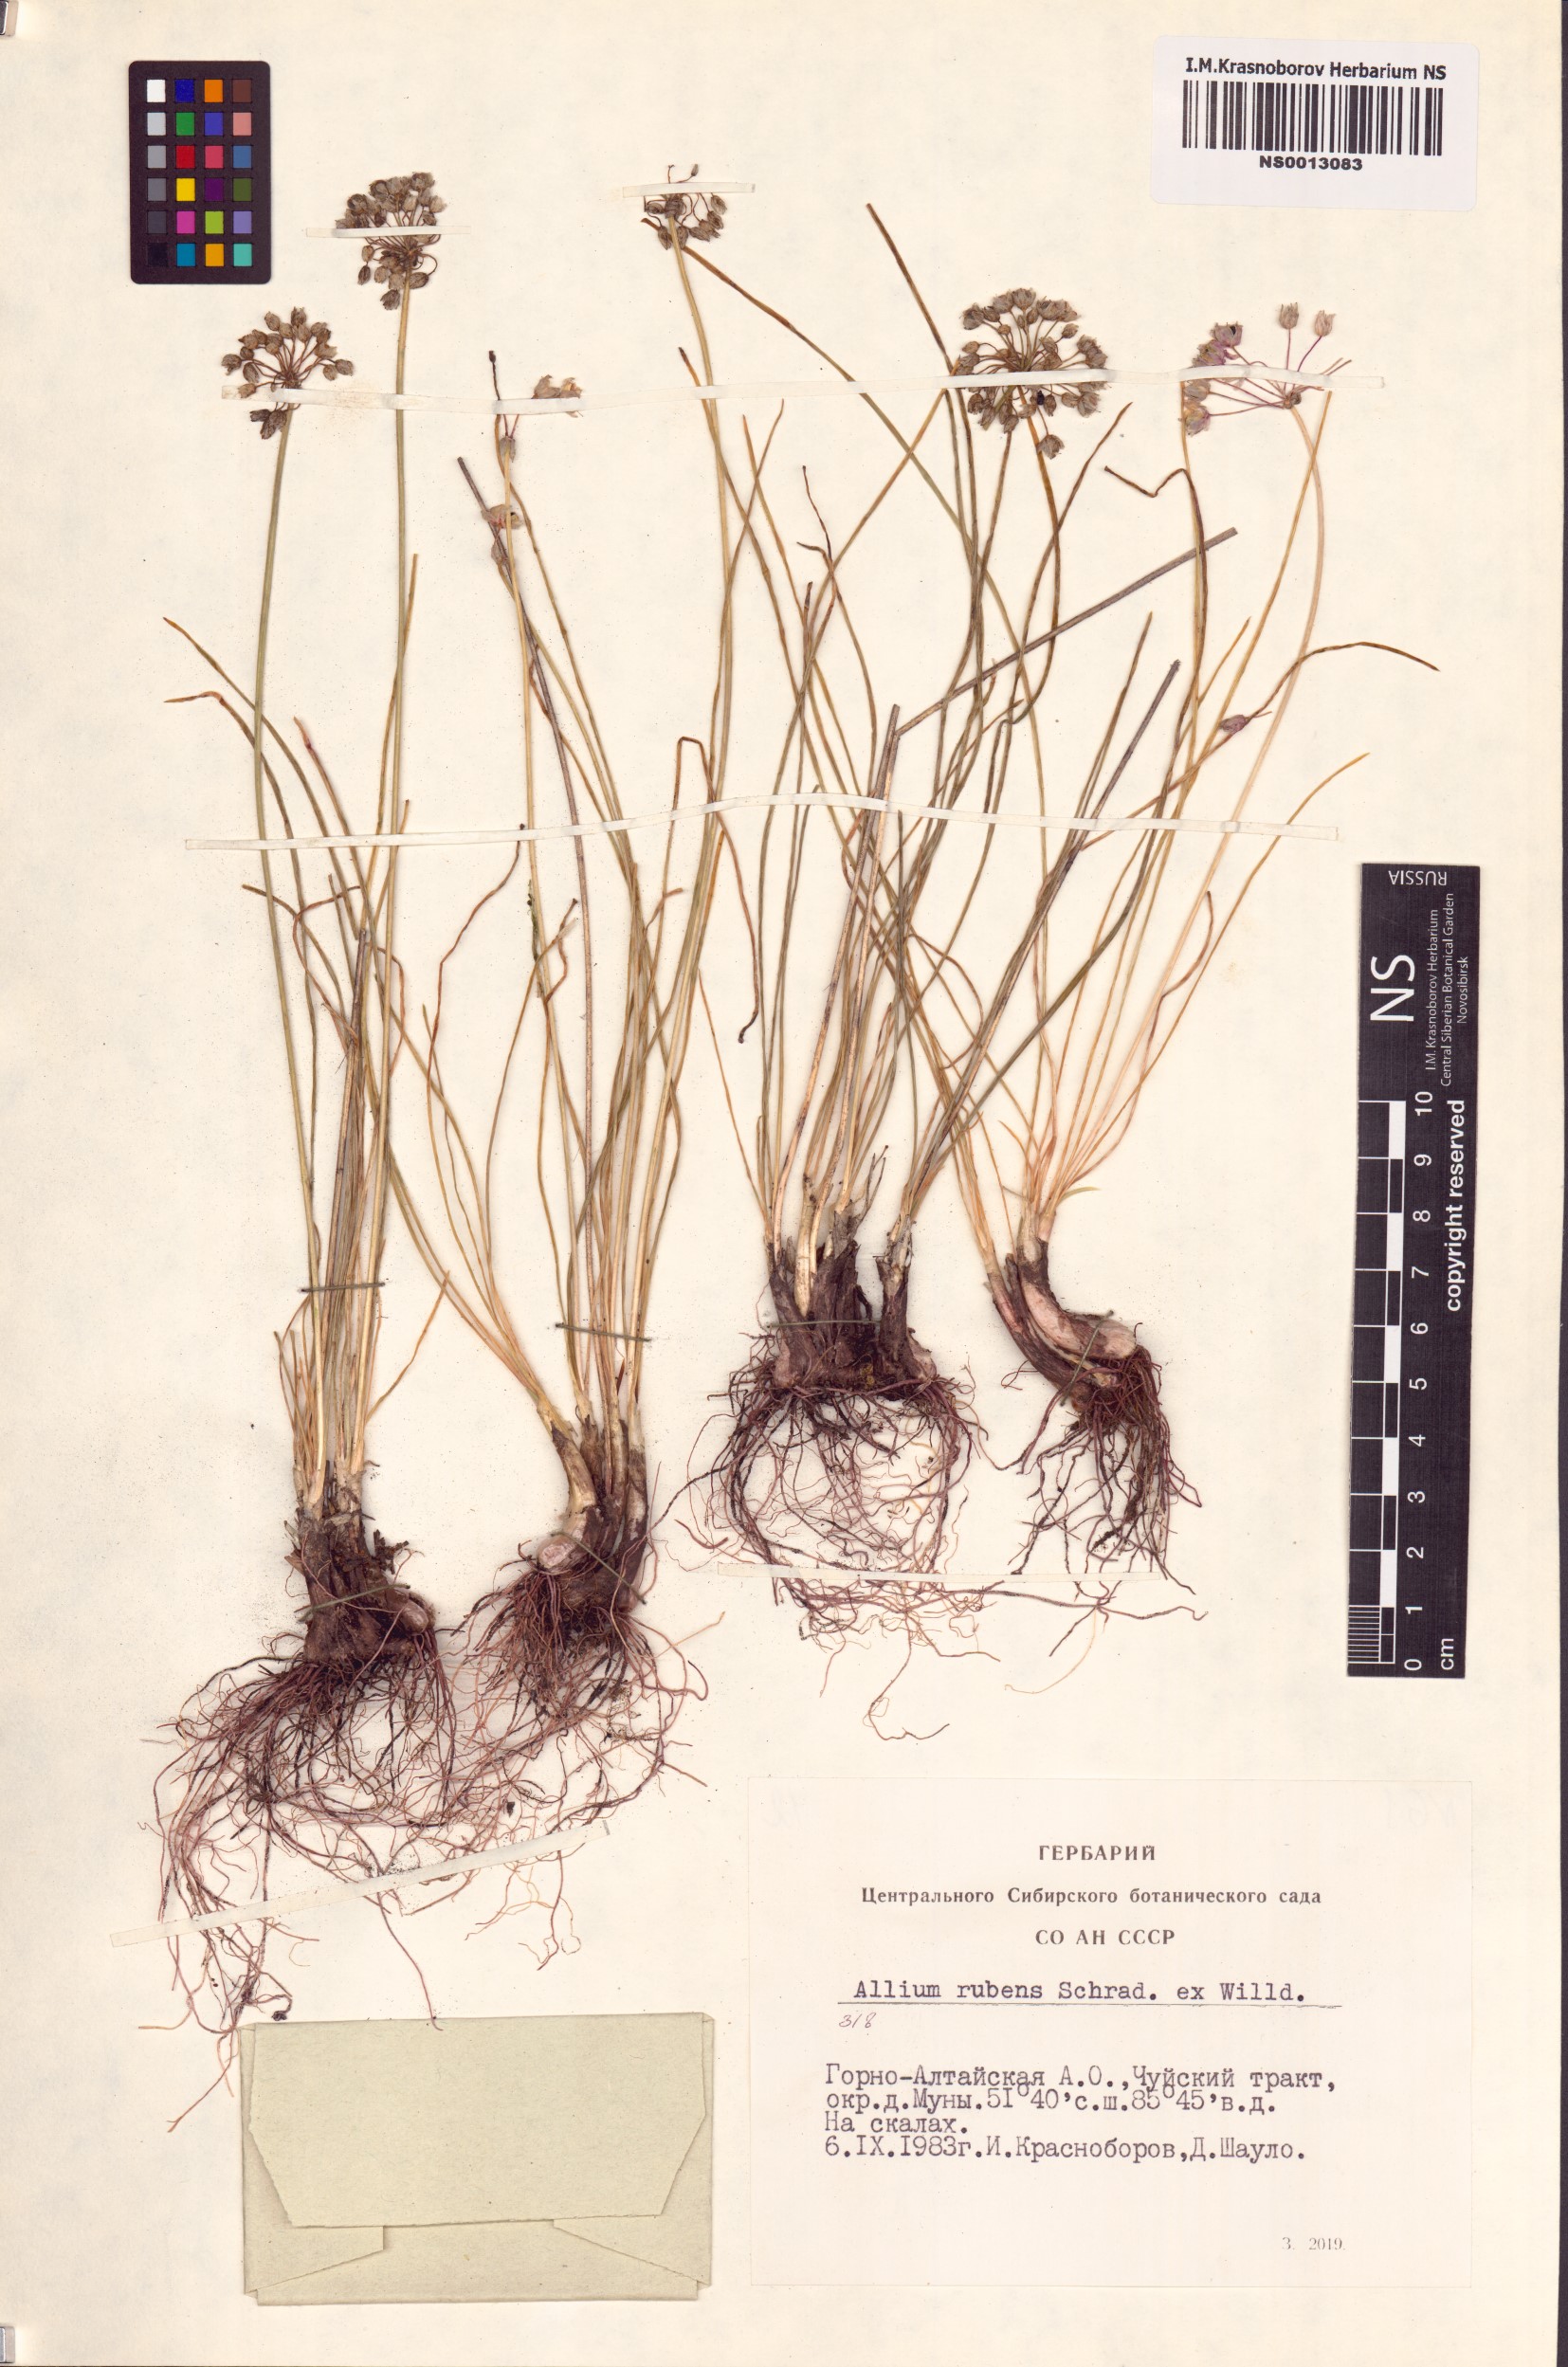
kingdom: Plantae
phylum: Tracheophyta
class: Liliopsida
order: Asparagales
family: Amaryllidaceae
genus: Allium
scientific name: Allium rubens
